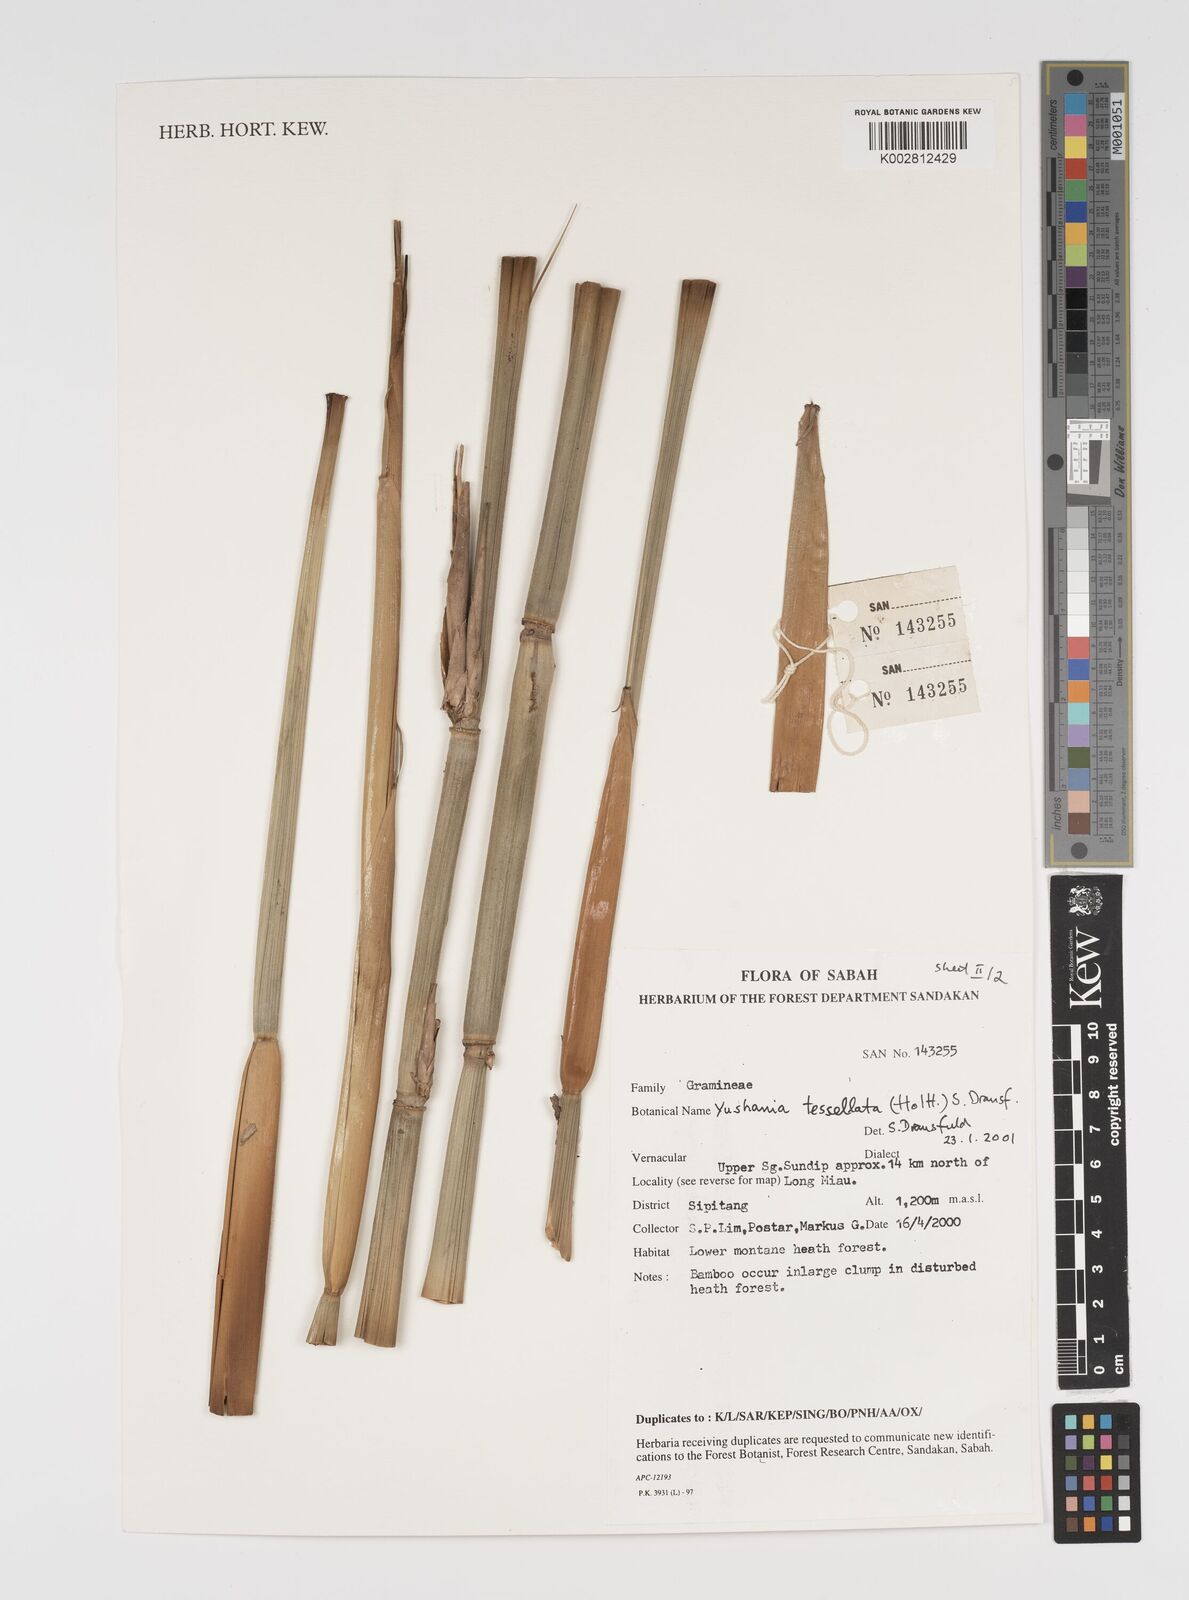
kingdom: Plantae
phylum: Tracheophyta
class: Liliopsida
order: Poales
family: Poaceae
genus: Yushania
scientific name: Yushania tessellata
